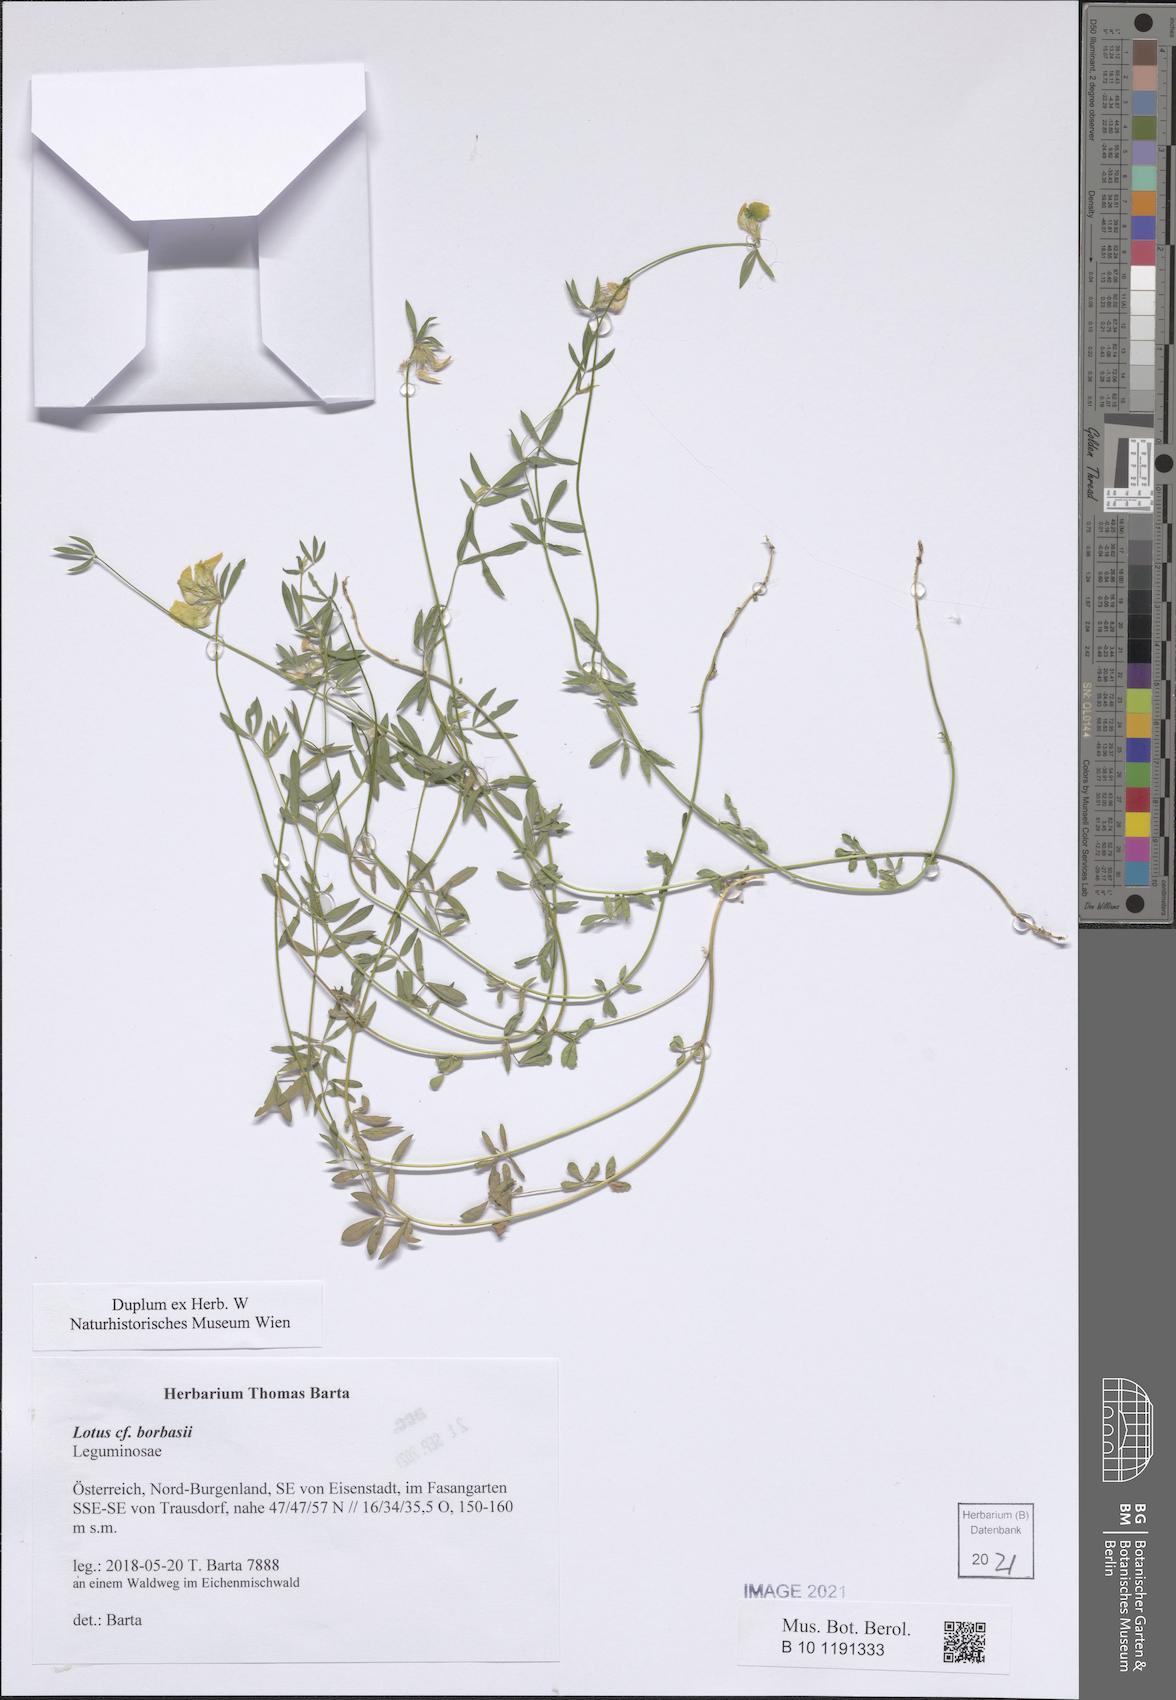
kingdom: Plantae
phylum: Tracheophyta
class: Magnoliopsida
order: Fabales
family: Fabaceae
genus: Lotus
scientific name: Lotus borbasii
